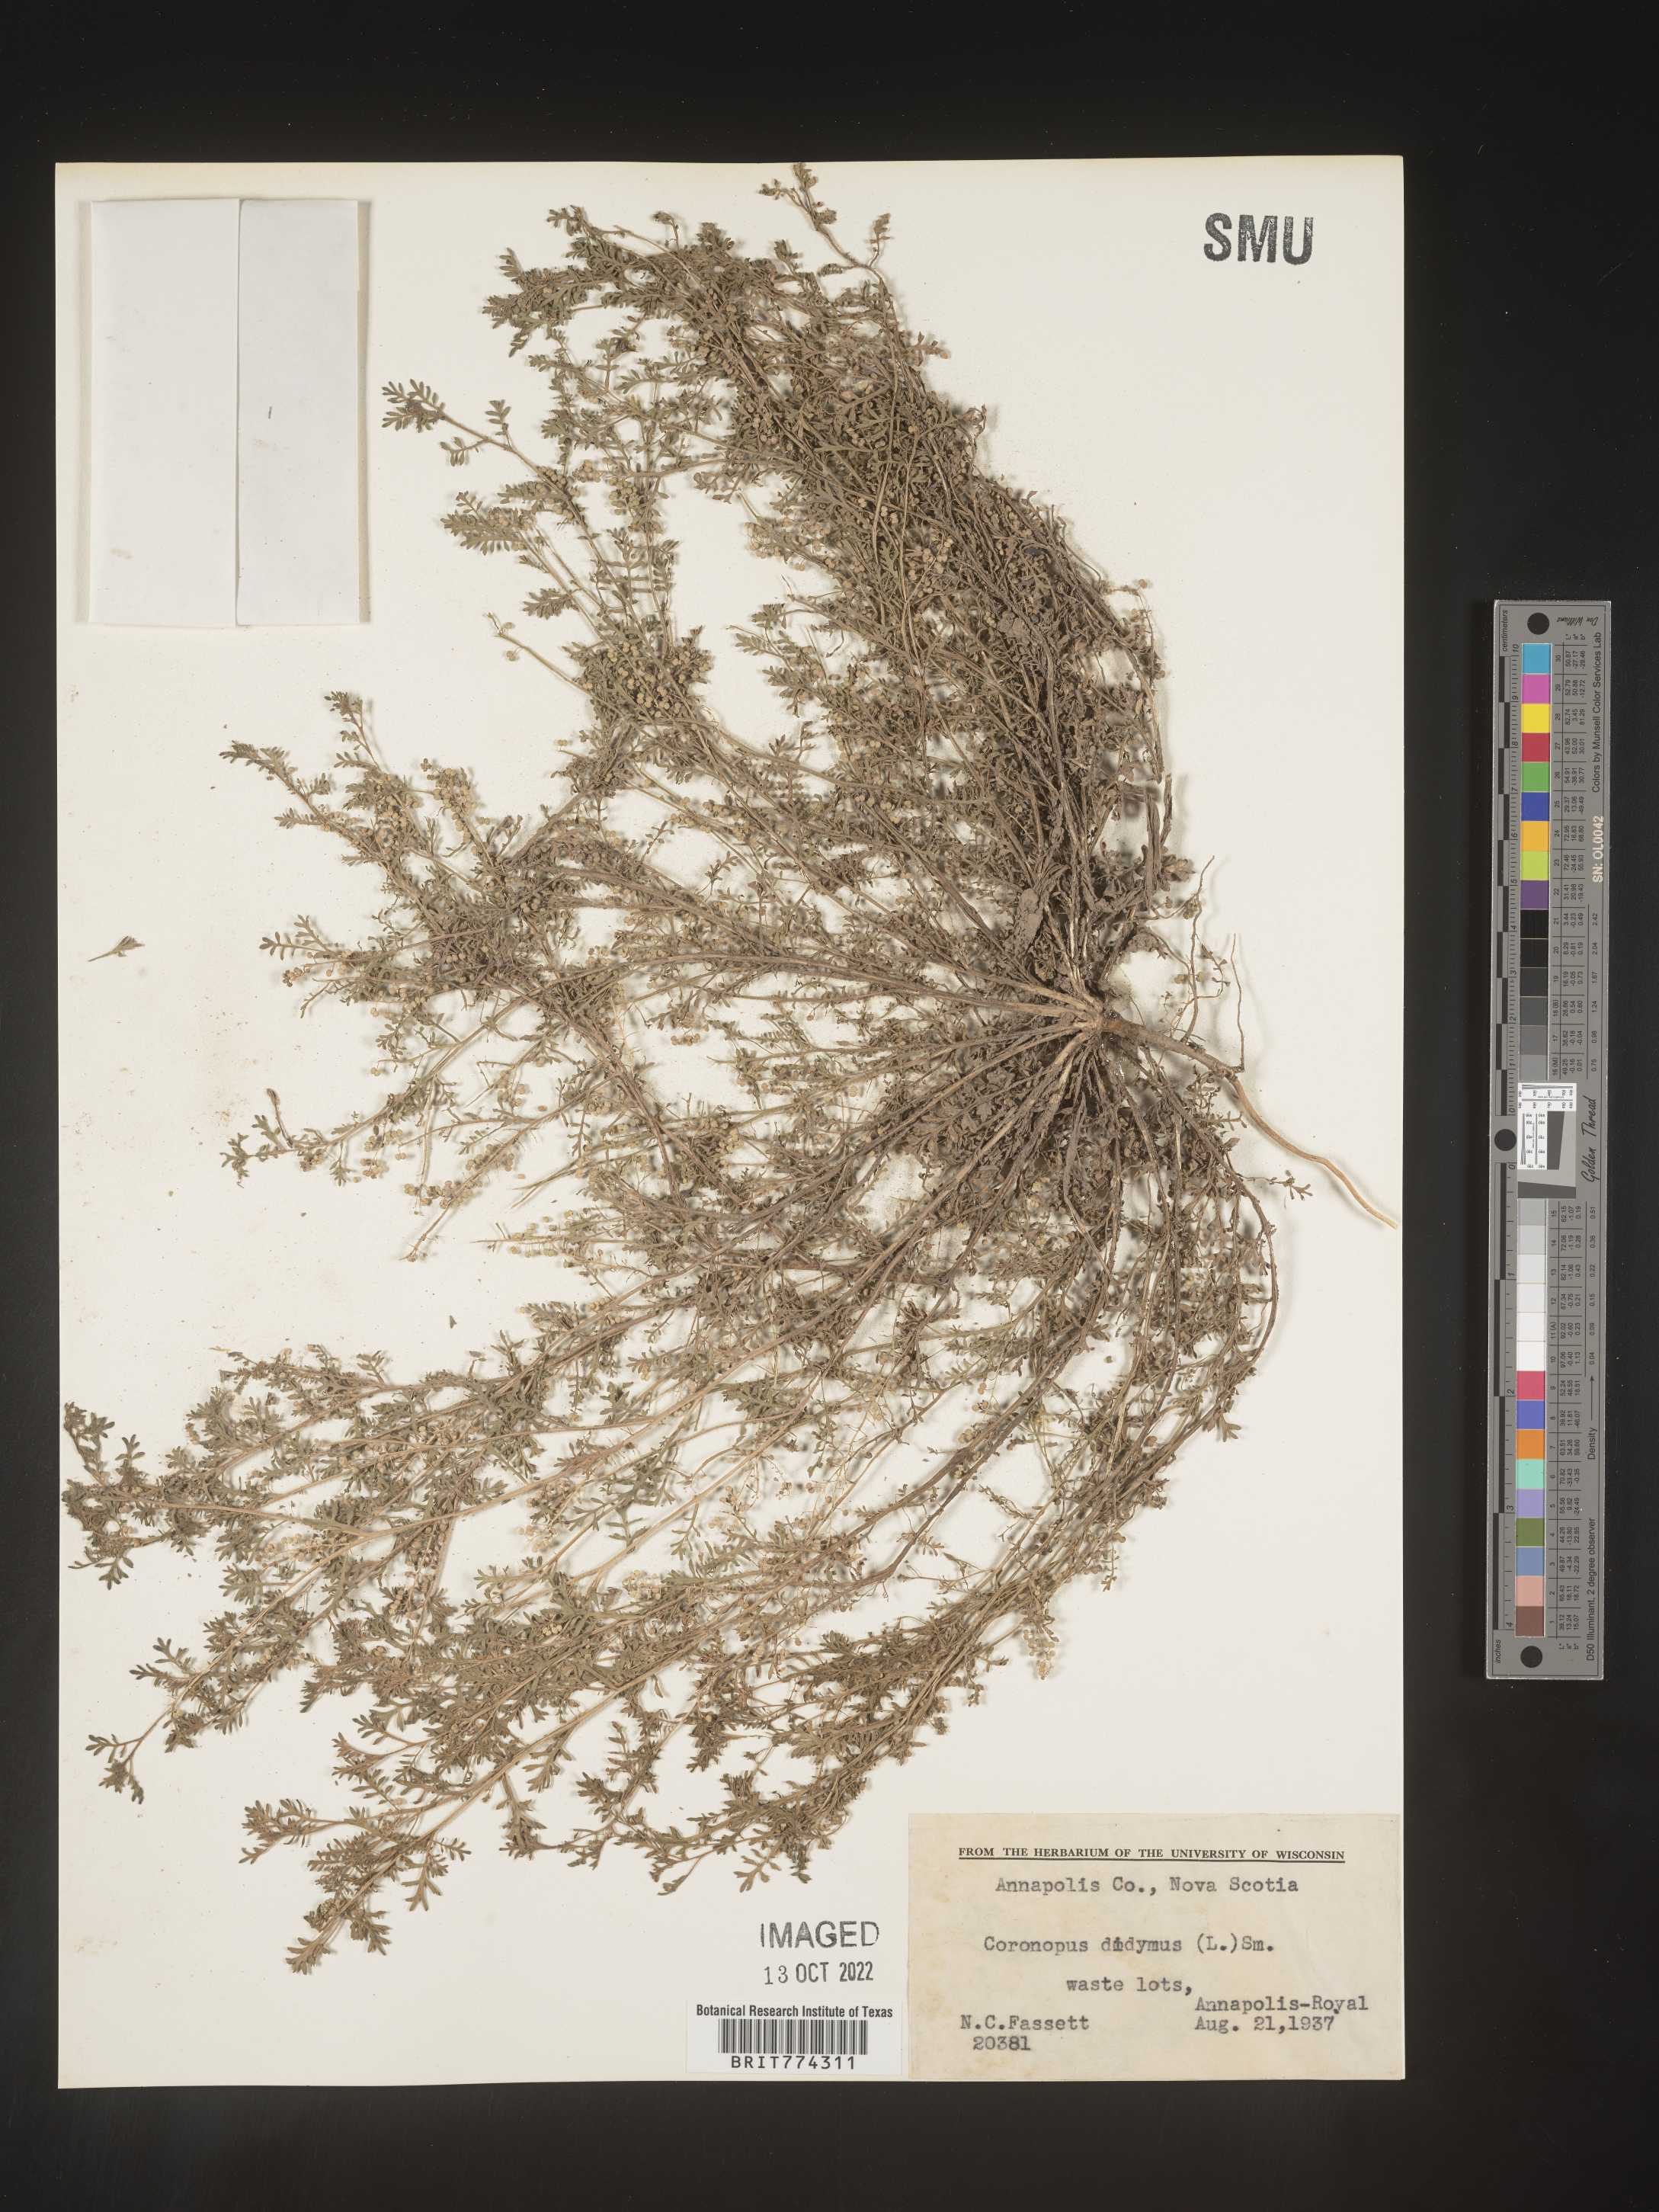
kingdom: Plantae
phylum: Tracheophyta
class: Magnoliopsida
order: Brassicales
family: Brassicaceae
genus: Coronopus
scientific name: Coronopus
